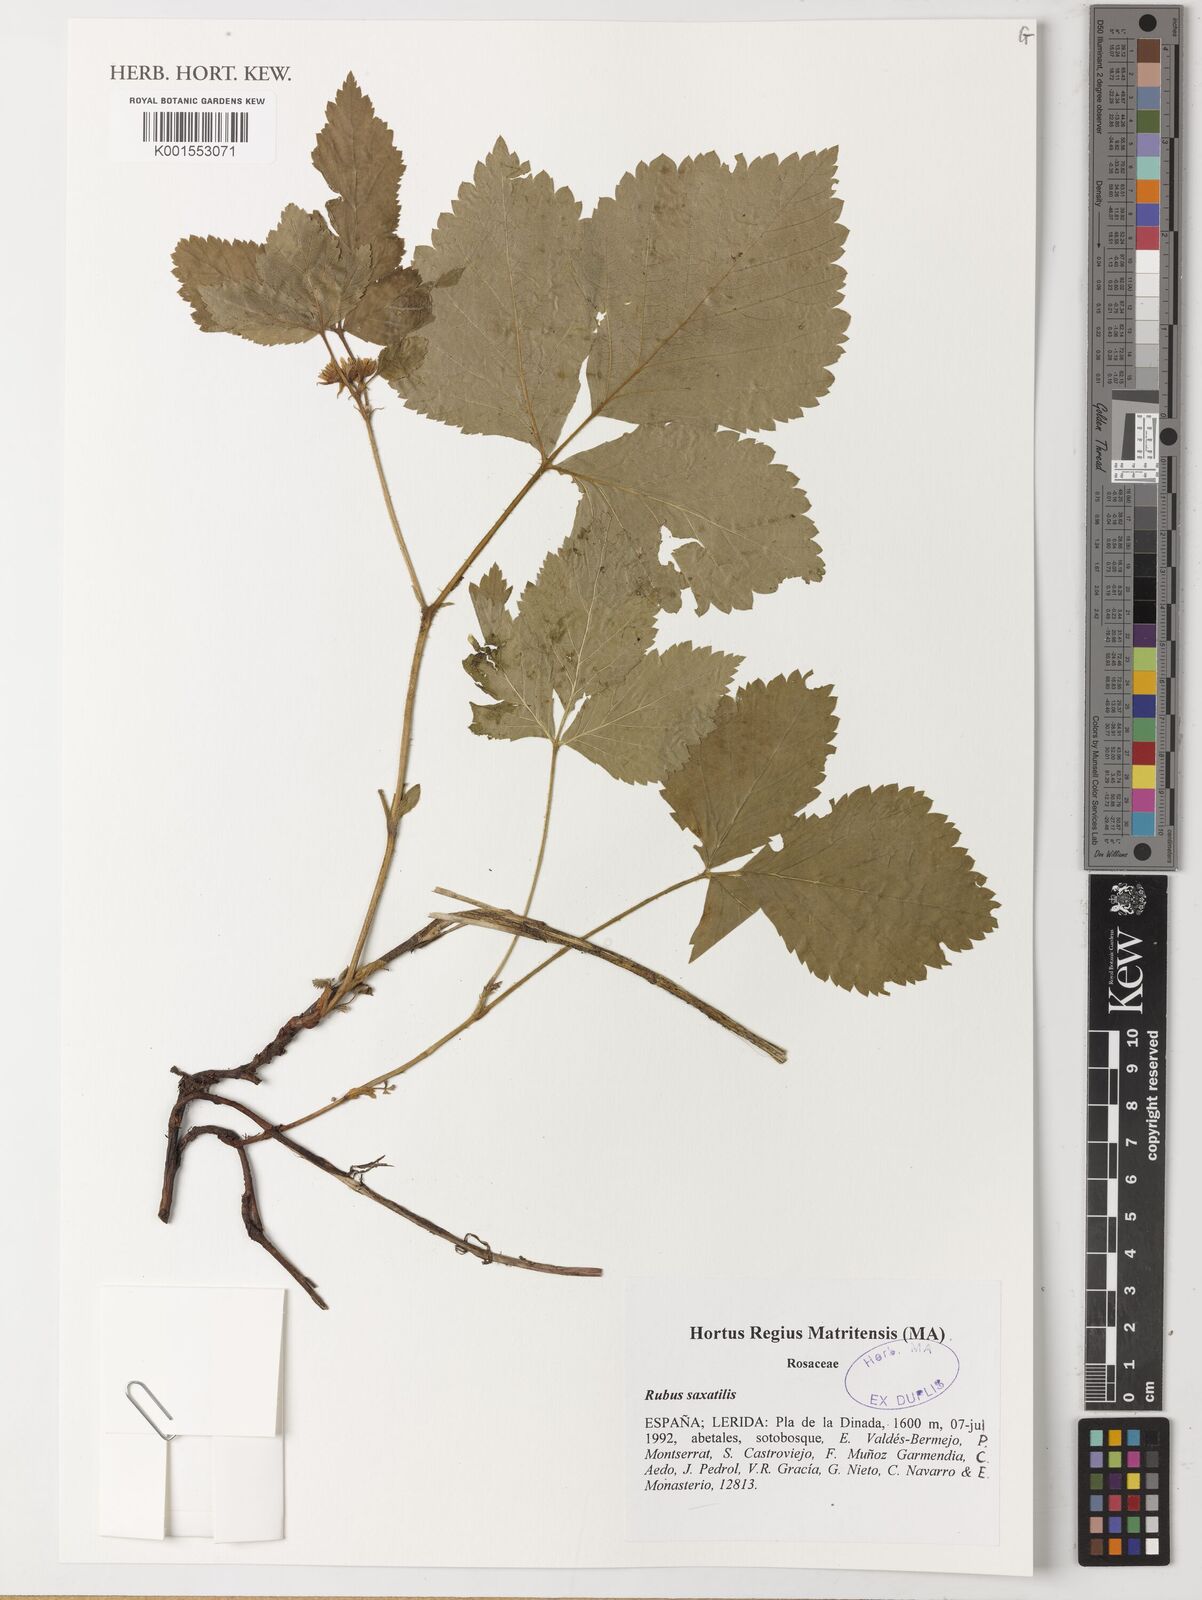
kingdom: Plantae
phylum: Tracheophyta
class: Magnoliopsida
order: Rosales
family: Rosaceae
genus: Rubus
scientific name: Rubus saxatilis
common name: Stone bramble
